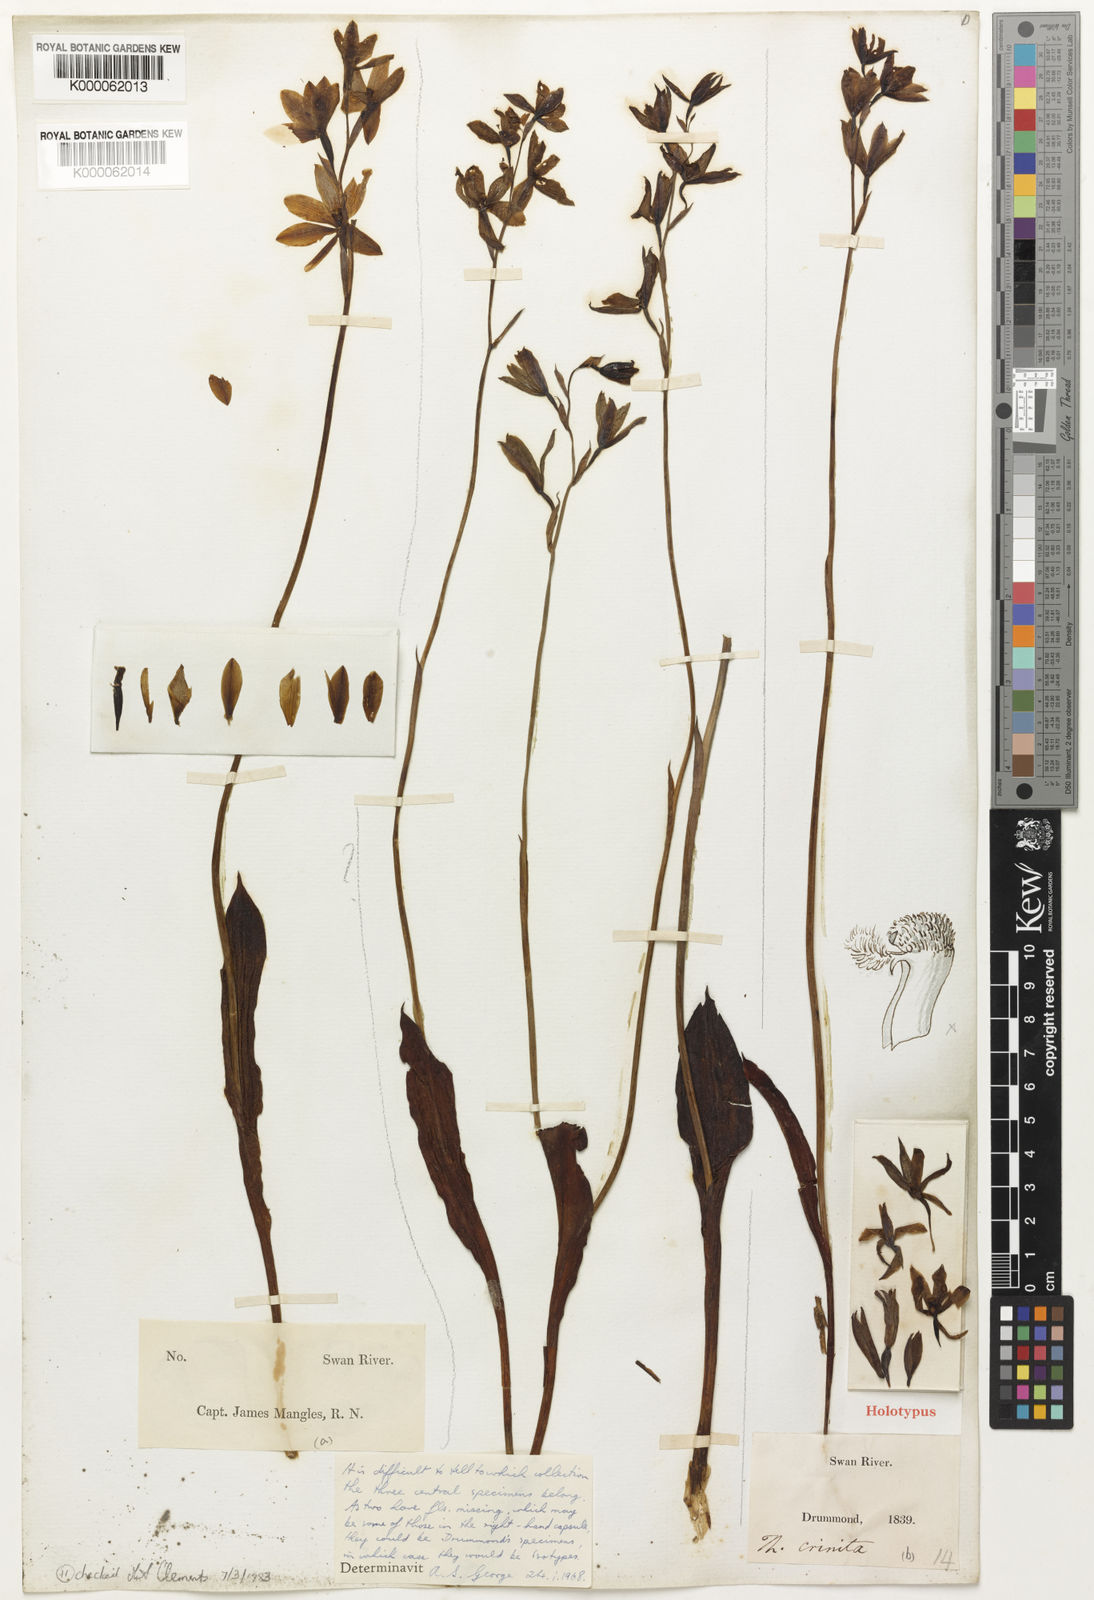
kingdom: Plantae
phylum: Tracheophyta
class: Liliopsida
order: Asparagales
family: Orchidaceae
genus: Thelymitra
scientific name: Thelymitra crinita
